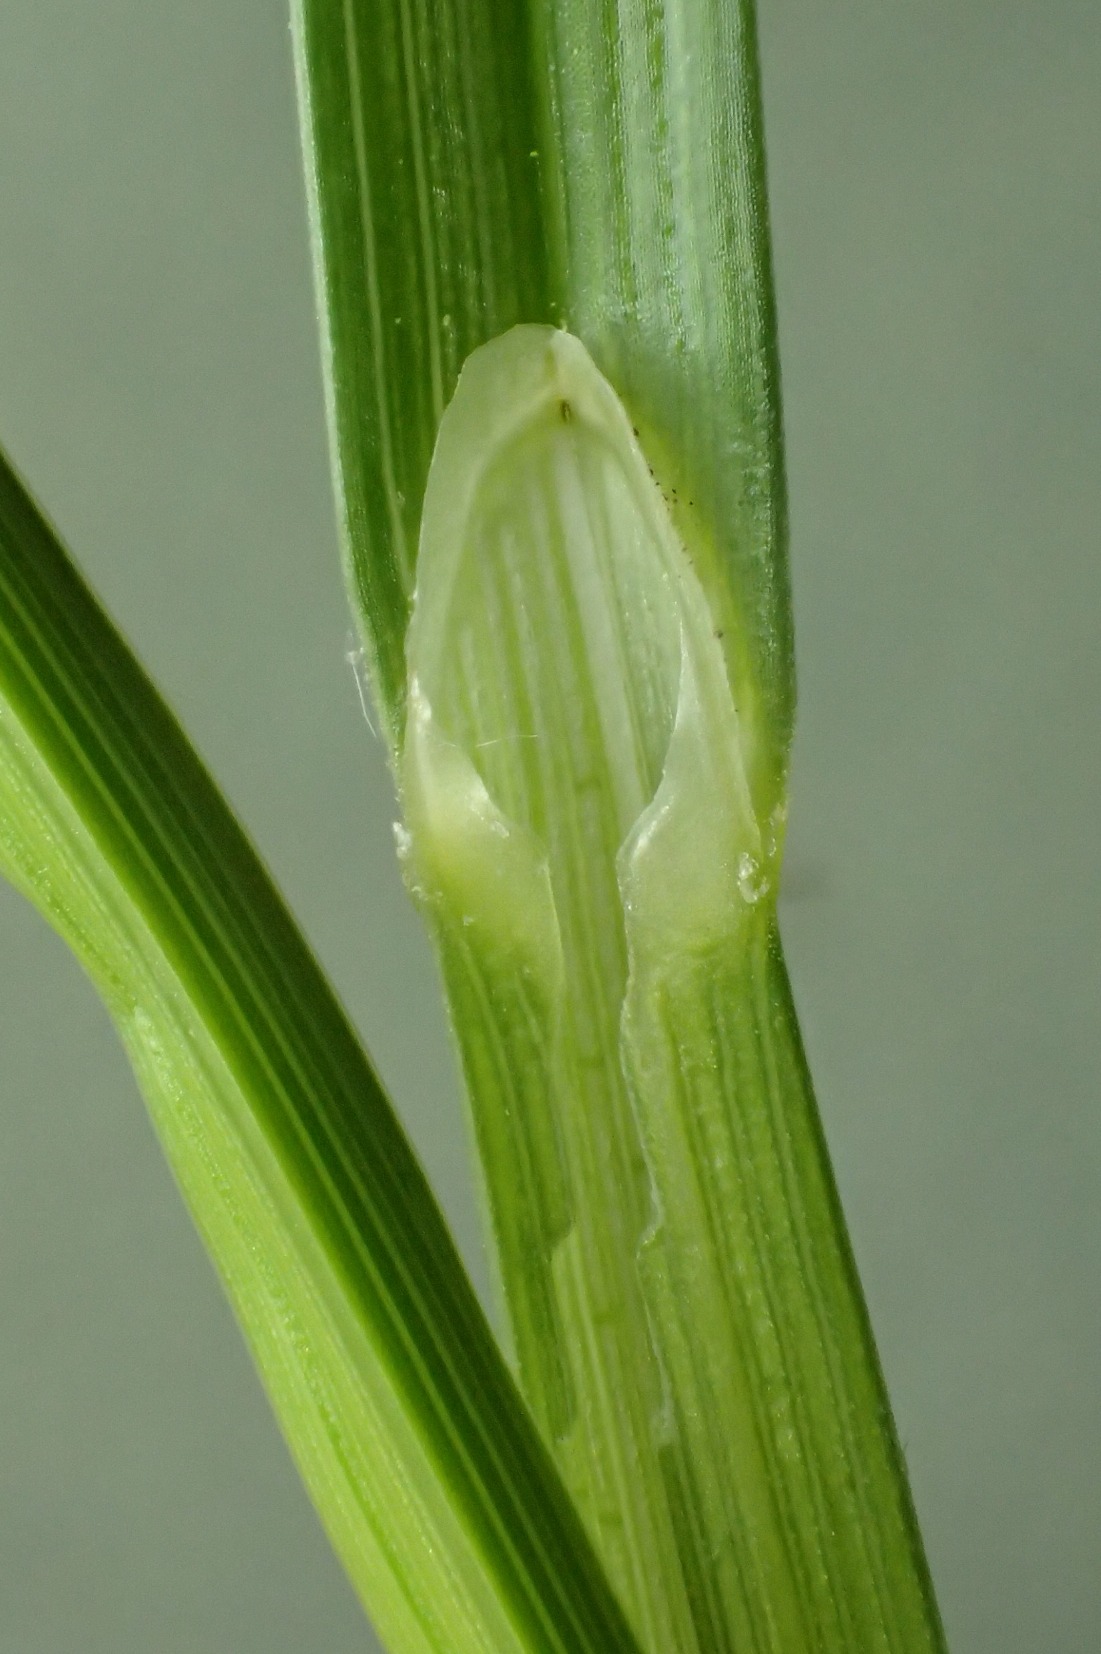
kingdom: Plantae
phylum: Tracheophyta
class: Liliopsida
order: Poales
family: Cyperaceae
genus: Carex
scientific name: Carex disticha
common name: Toradet star
